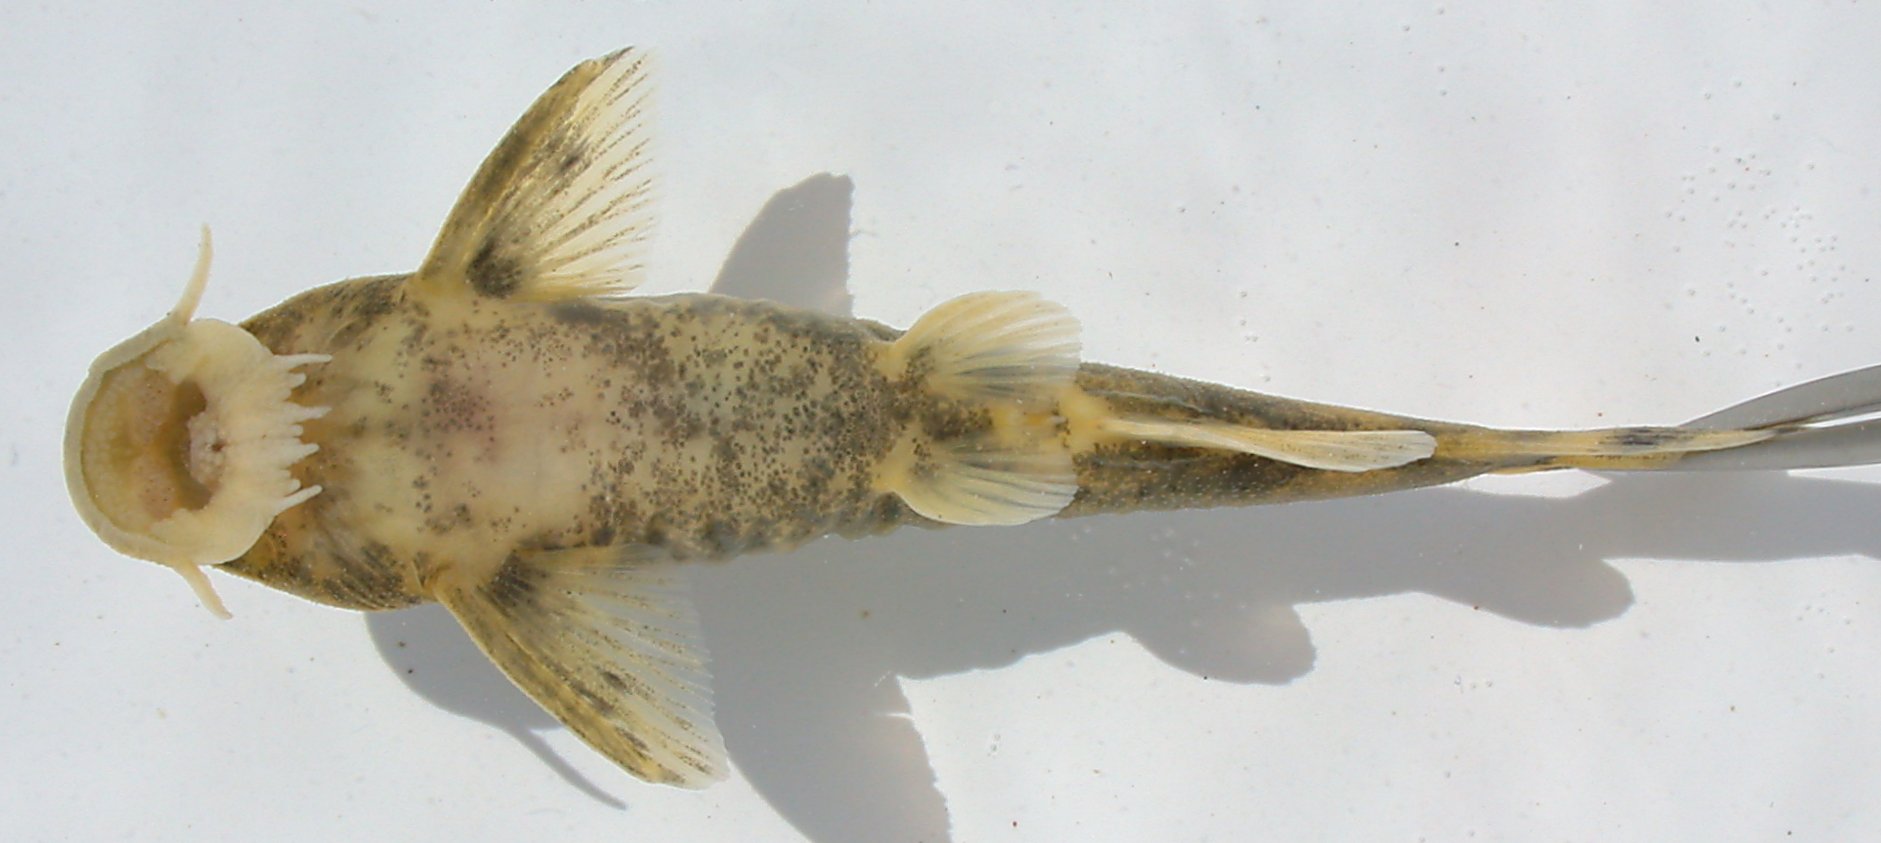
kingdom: Animalia
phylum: Chordata
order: Siluriformes
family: Mochokidae
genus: Chiloglanis
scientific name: Chiloglanis paratus
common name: Sawfin catlet
